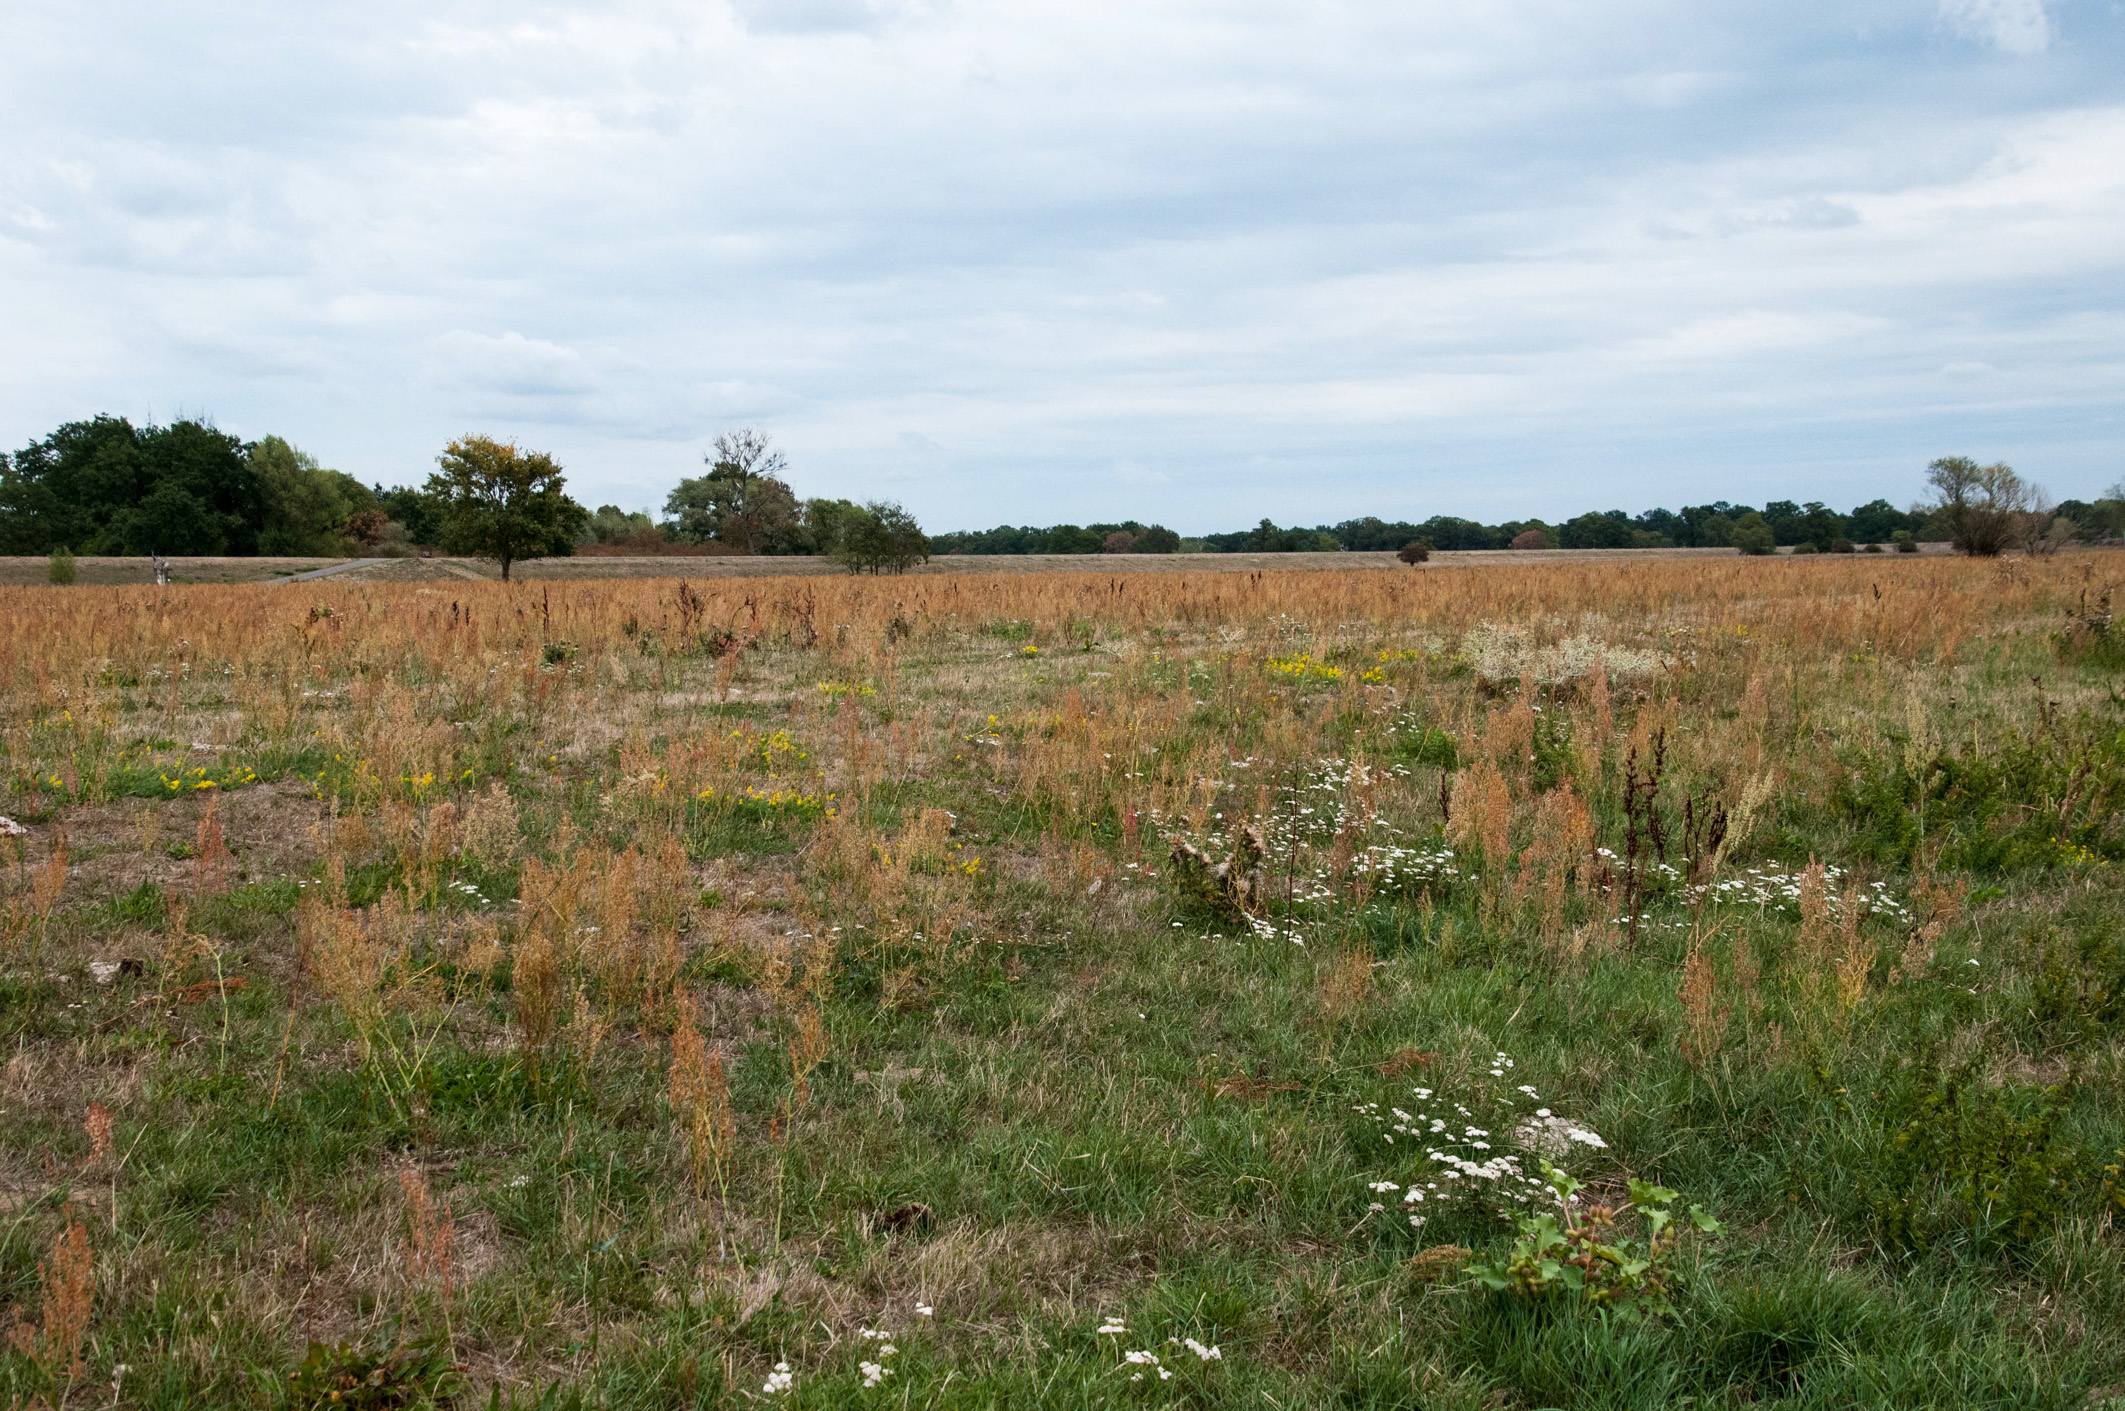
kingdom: Plantae
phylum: Tracheophyta
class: Magnoliopsida
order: Caryophyllales
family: Polygonaceae
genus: Rumex
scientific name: Rumex thyrsiflorus
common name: Garden sorrel
